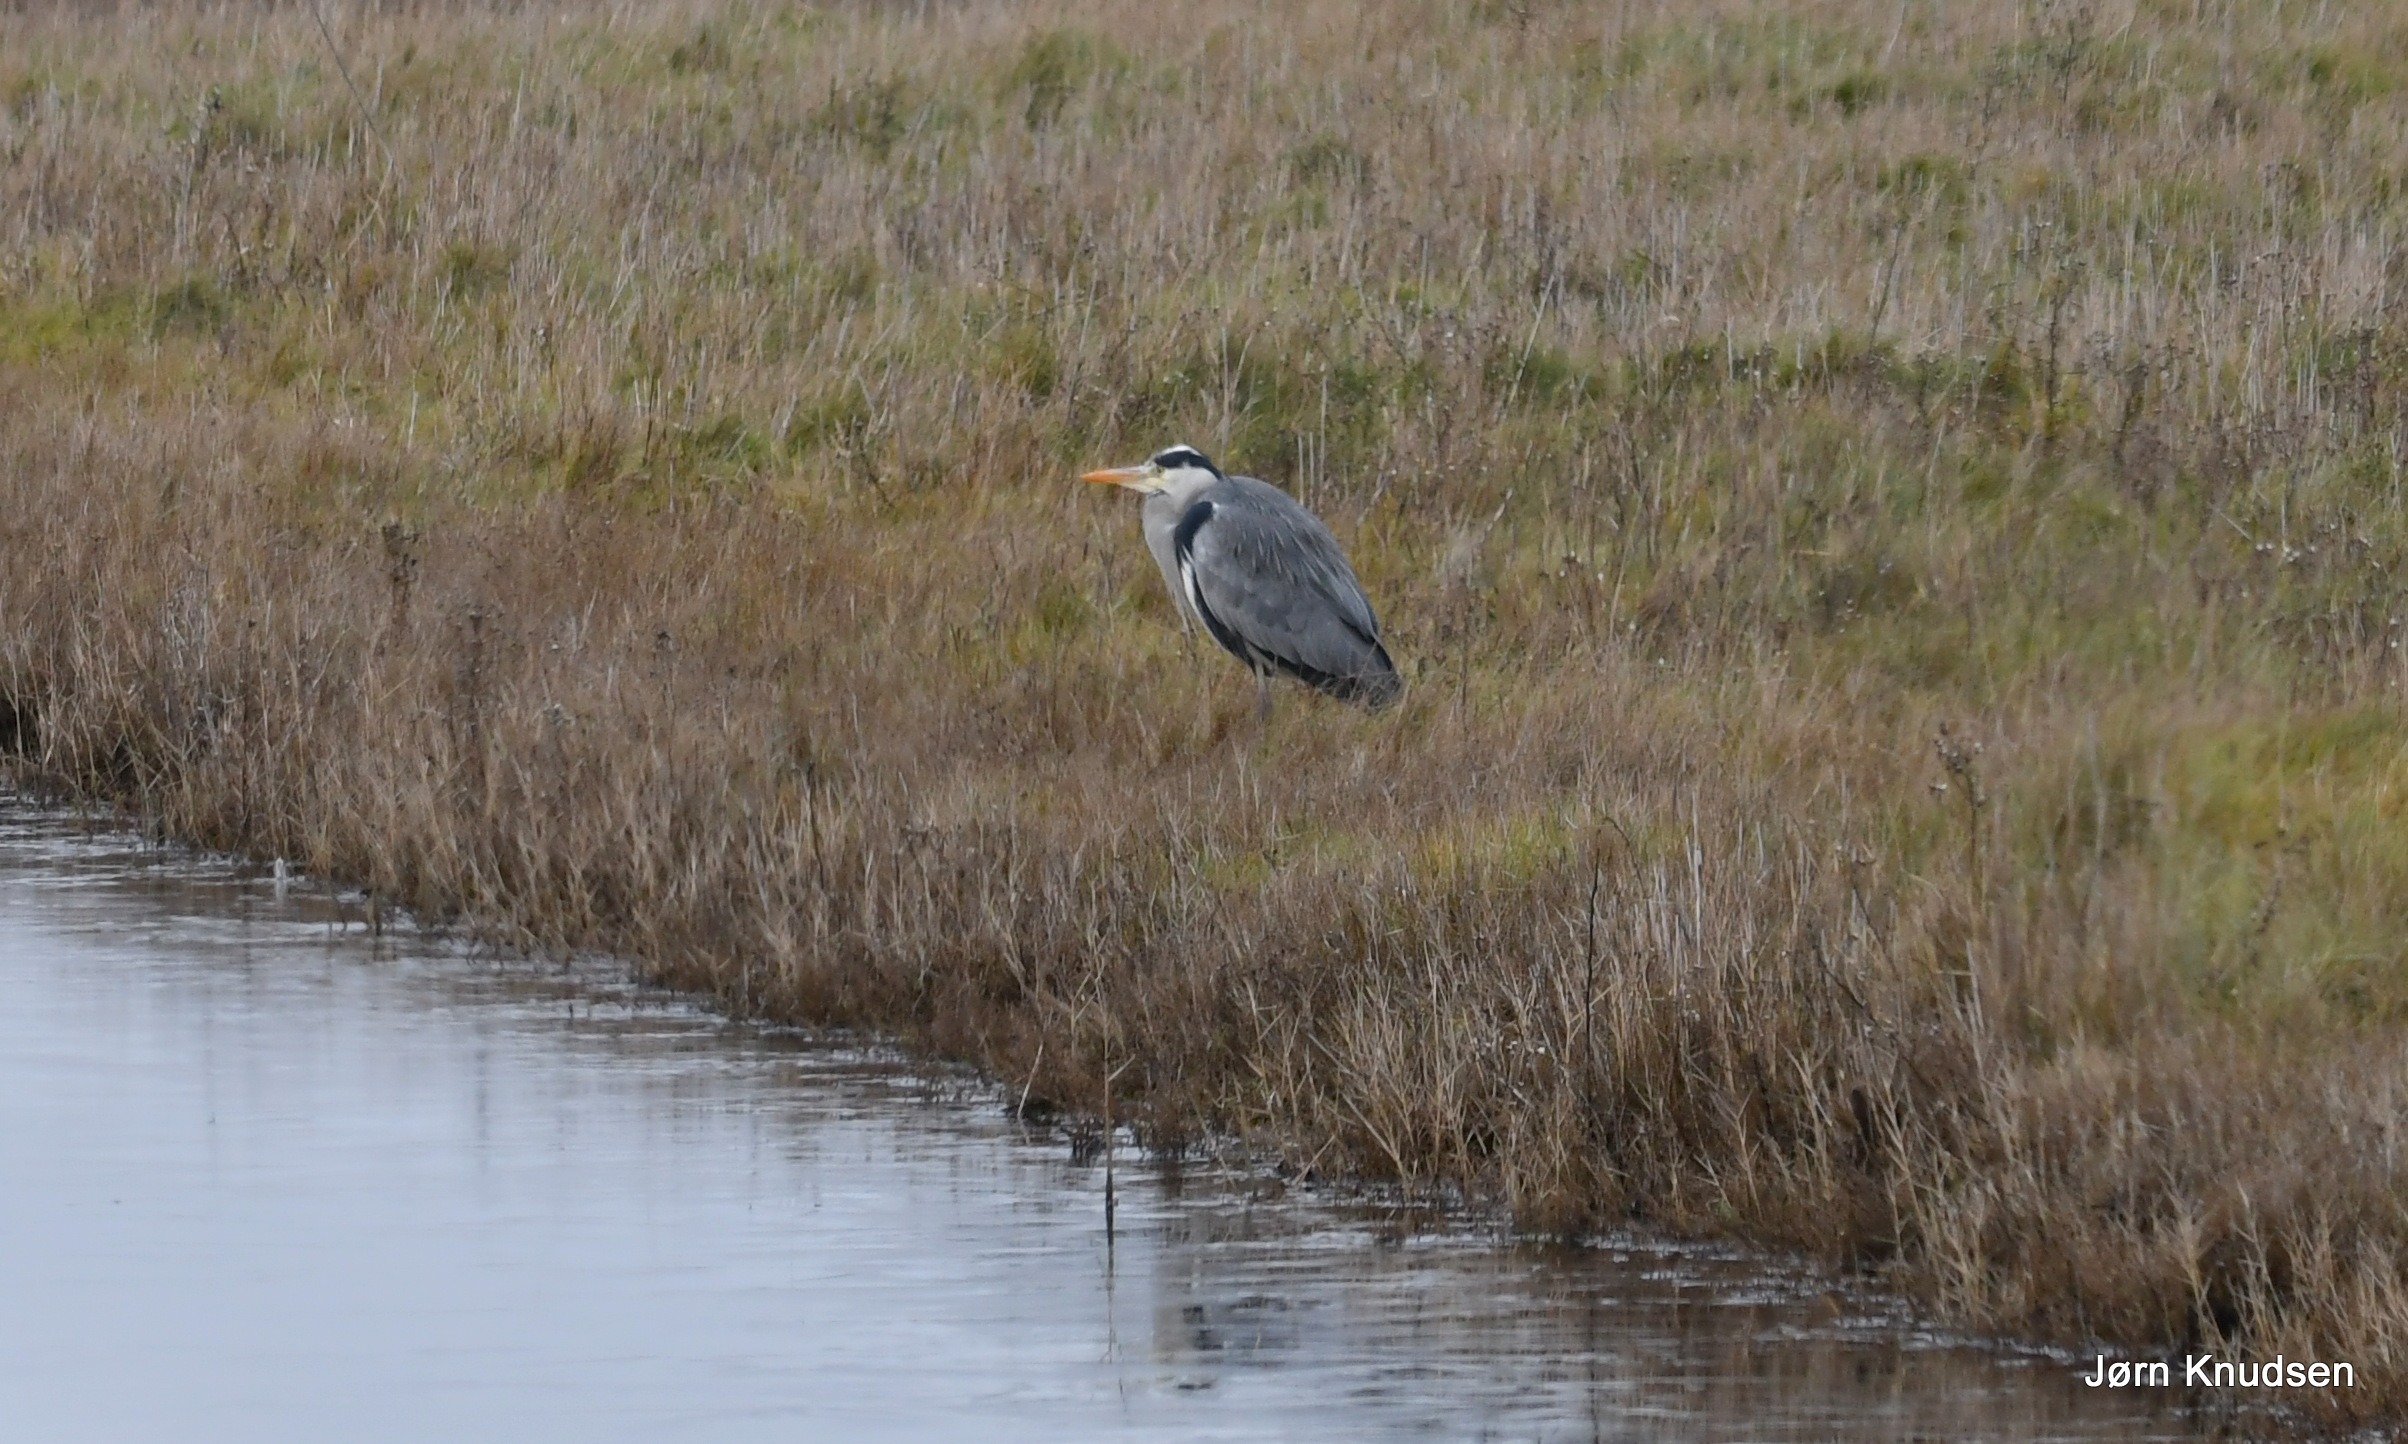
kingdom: Animalia
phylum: Chordata
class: Aves
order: Pelecaniformes
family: Ardeidae
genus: Ardea
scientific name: Ardea cinerea
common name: Fiskehejre
